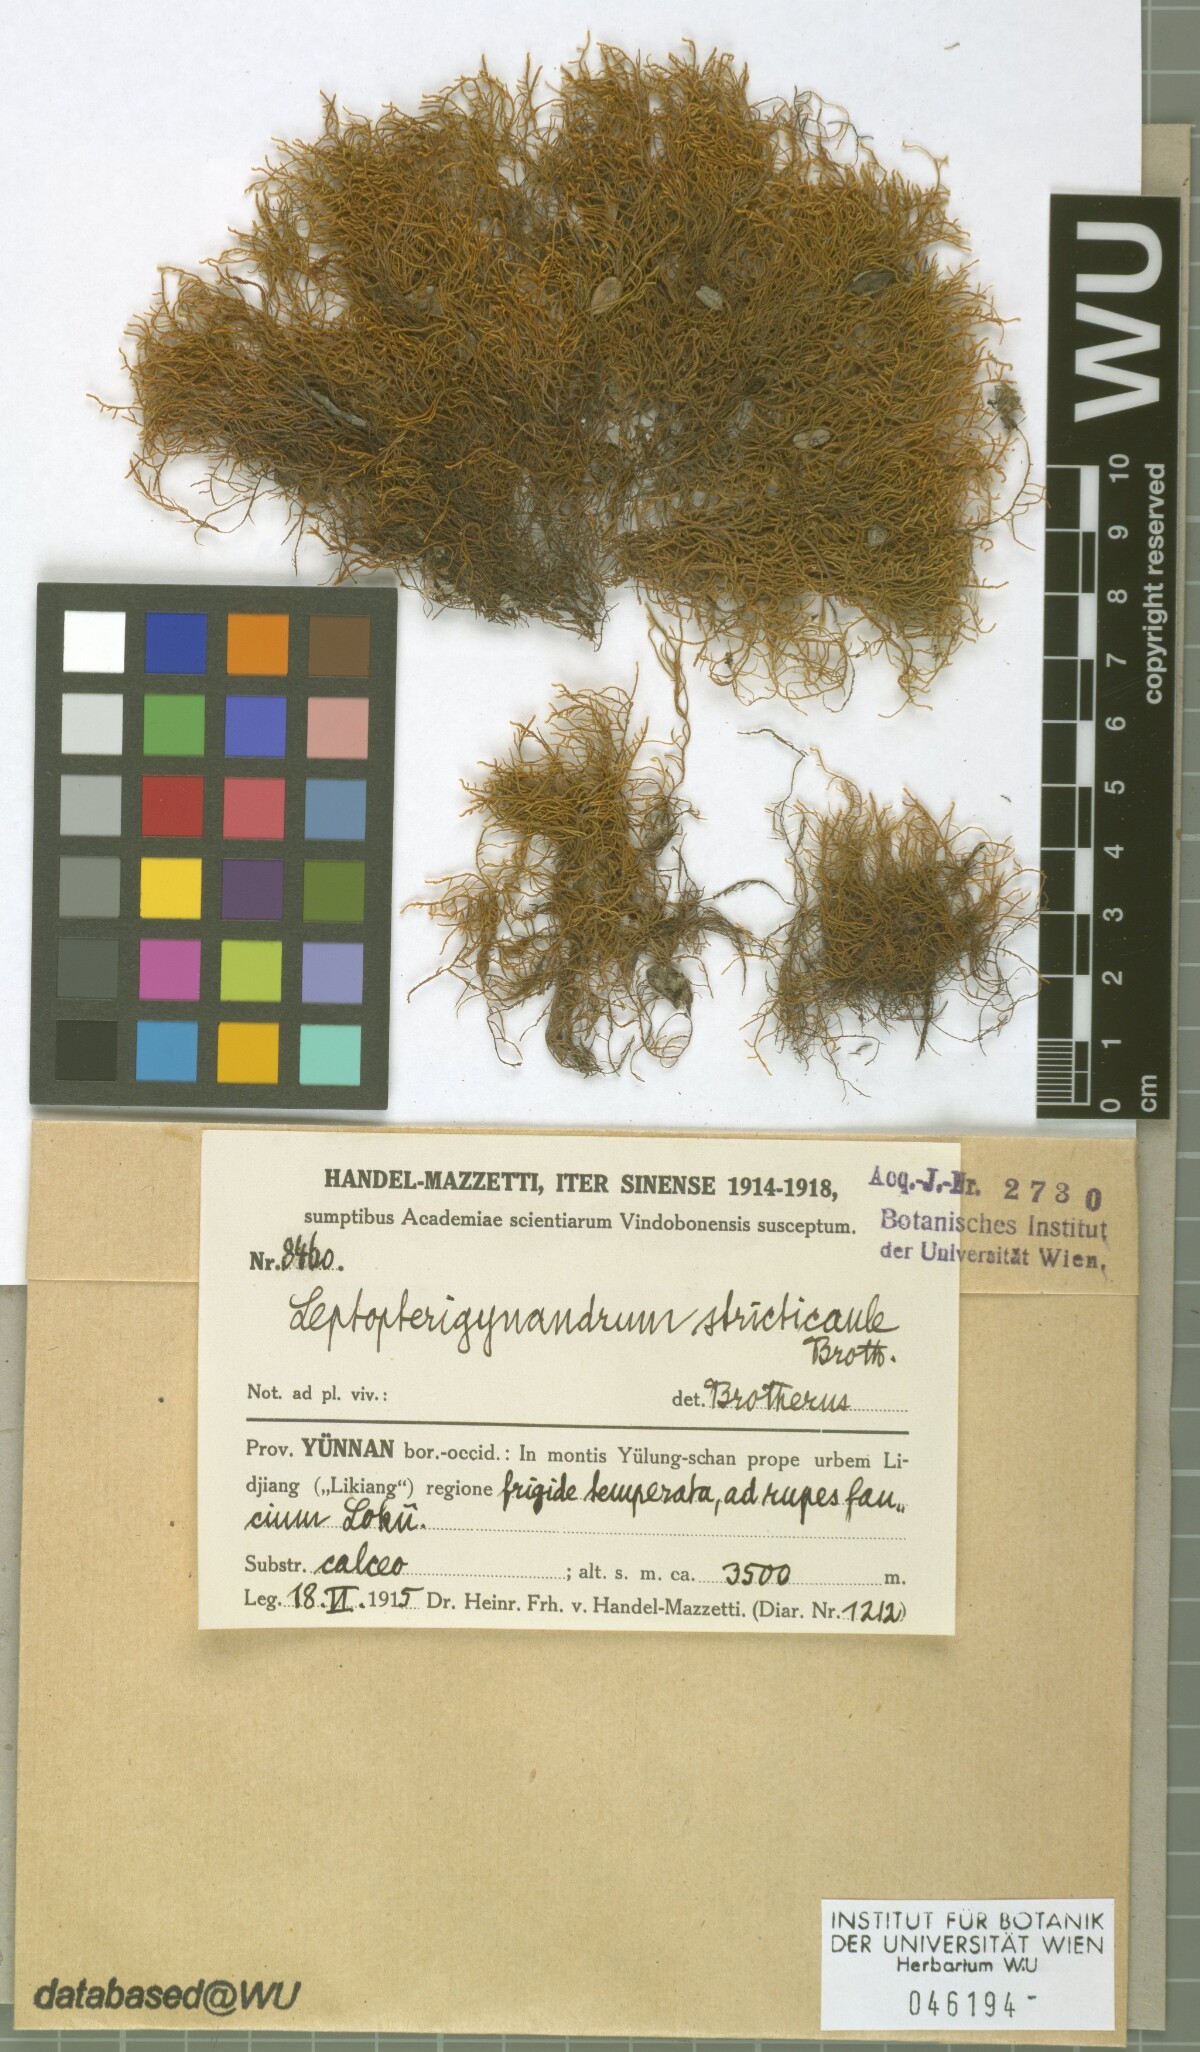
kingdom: Plantae
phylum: Bryophyta
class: Bryopsida
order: Hypnales
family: Taxiphyllaceae
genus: Leptopterigynandrum
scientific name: Leptopterigynandrum stricticaule
